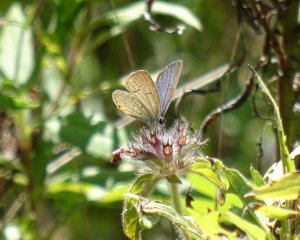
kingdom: Animalia
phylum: Arthropoda
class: Insecta
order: Lepidoptera
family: Lycaenidae
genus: Elkalyce
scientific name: Elkalyce comyntas
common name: Eastern Tailed-Blue
